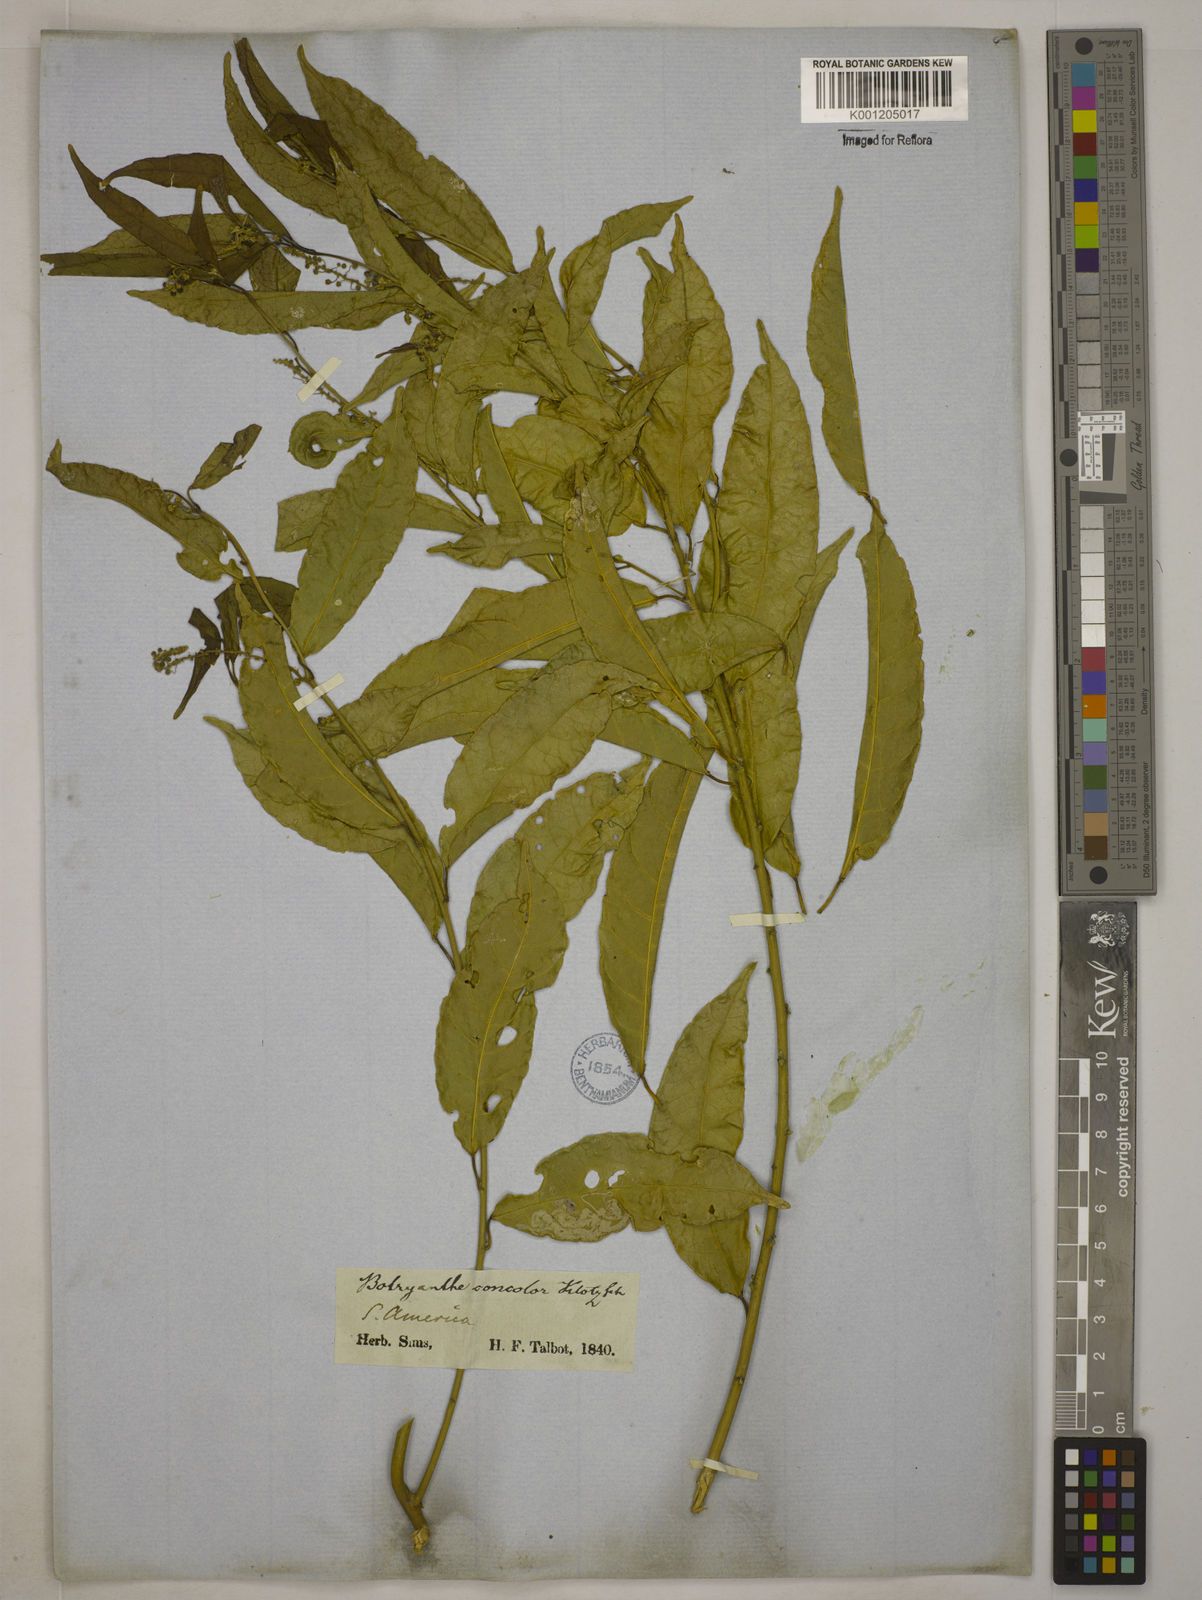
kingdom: Plantae
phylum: Tracheophyta
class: Magnoliopsida
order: Malpighiales
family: Euphorbiaceae
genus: Plukenetia
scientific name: Plukenetia serrata
